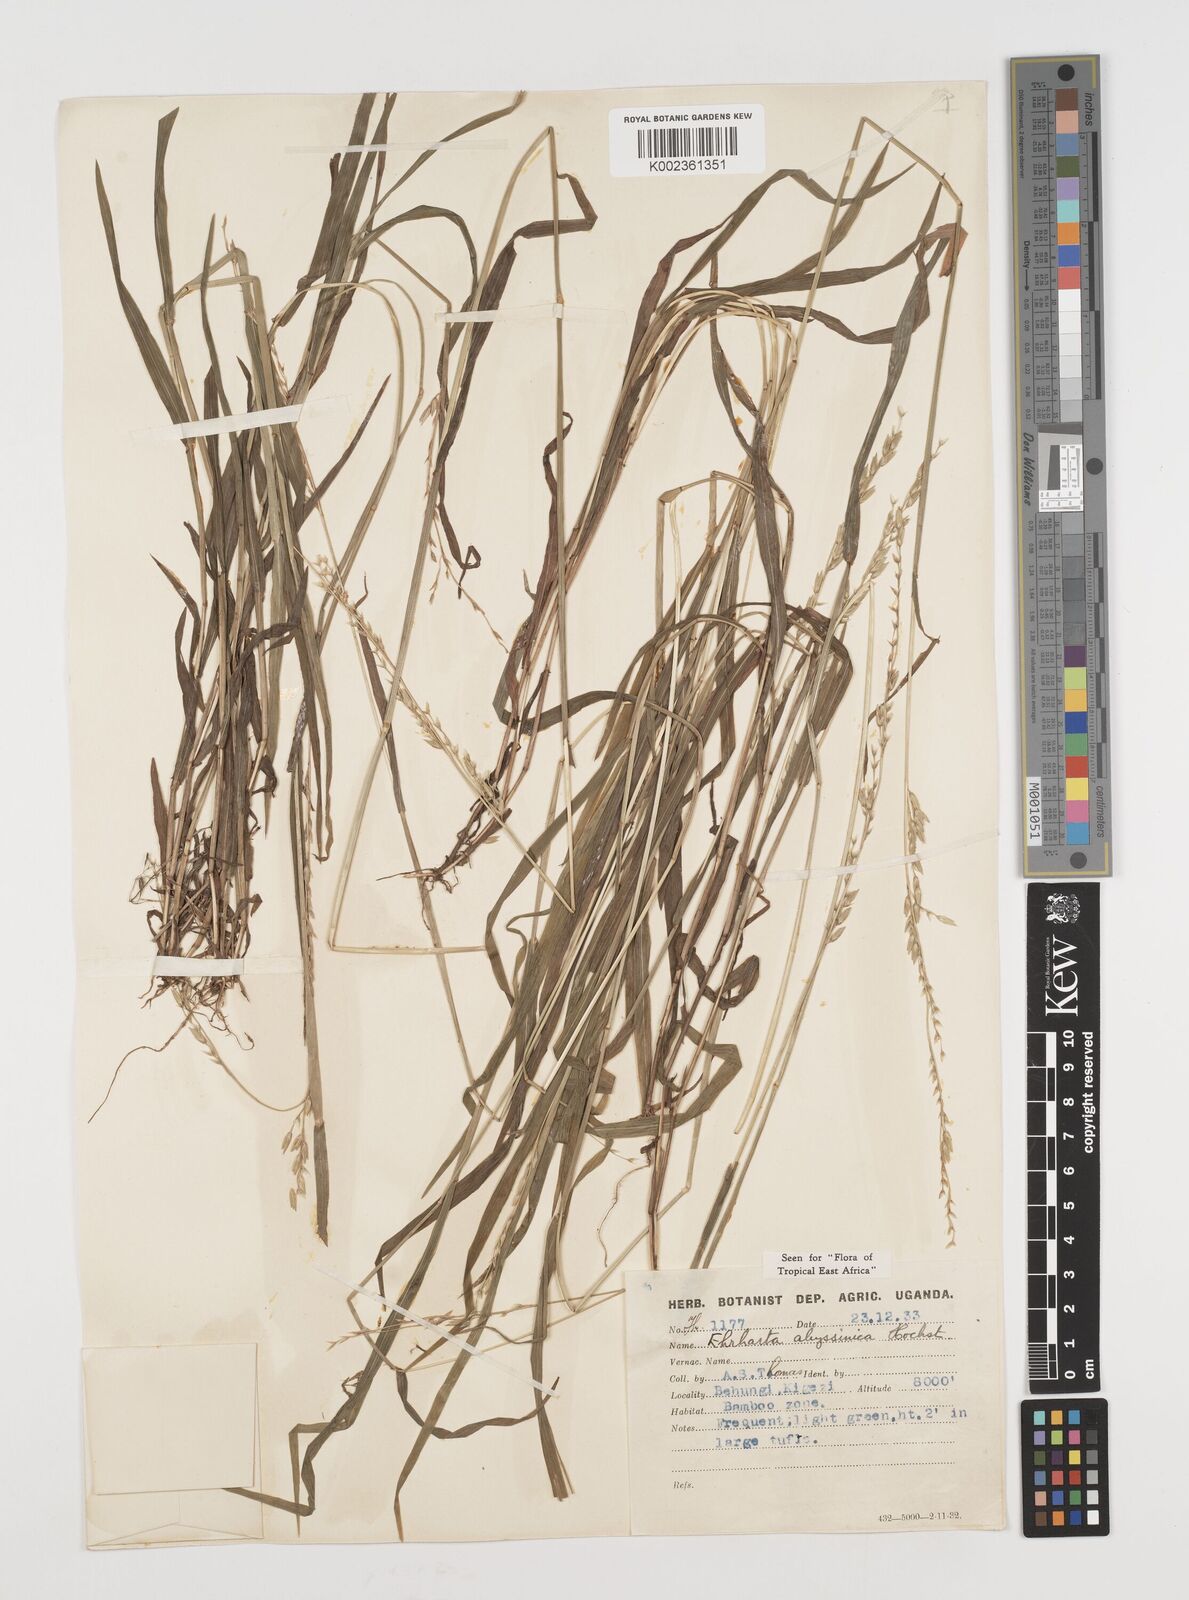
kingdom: Plantae
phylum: Tracheophyta
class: Liliopsida
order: Poales
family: Poaceae
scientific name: Poaceae
